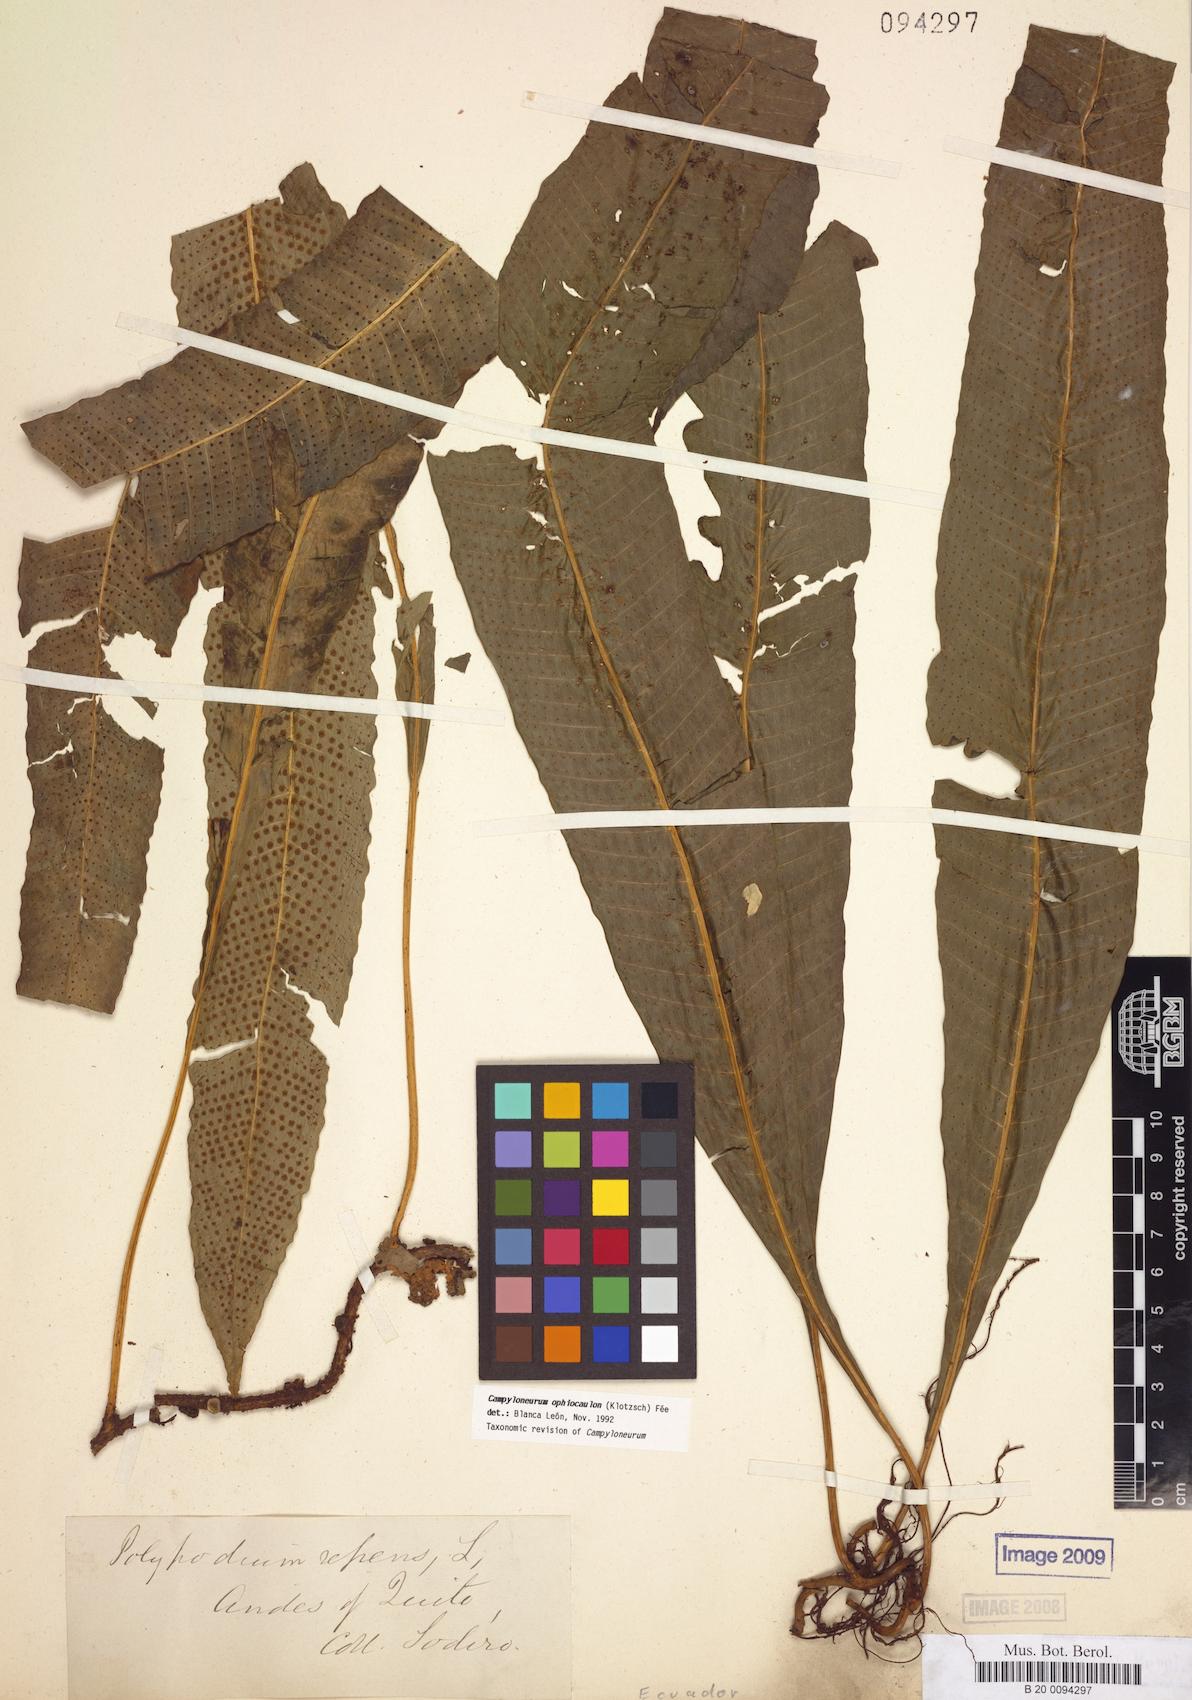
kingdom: Plantae
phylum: Tracheophyta
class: Polypodiopsida
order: Polypodiales
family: Polypodiaceae
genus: Campyloneurum
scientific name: Campyloneurum ophiocaulon
